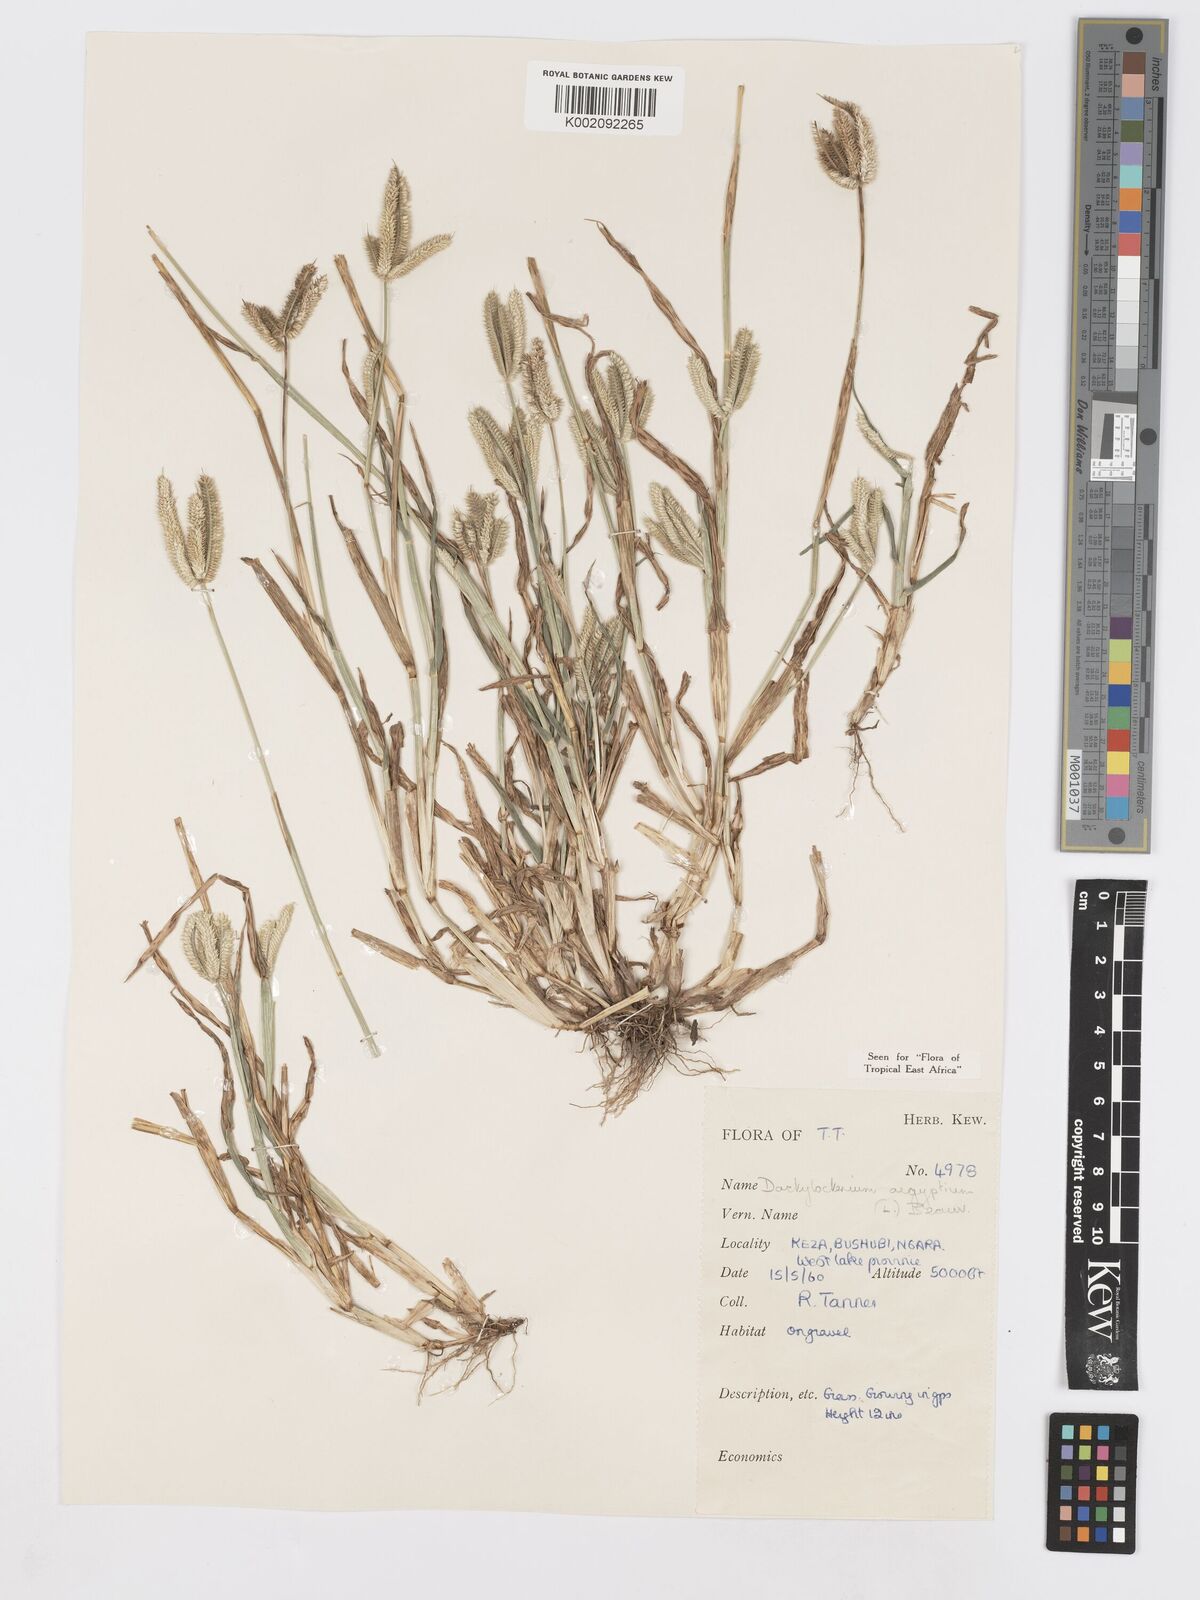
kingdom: Plantae
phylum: Tracheophyta
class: Liliopsida
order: Poales
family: Poaceae
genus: Dactyloctenium
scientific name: Dactyloctenium aegyptium
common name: Egyptian grass
